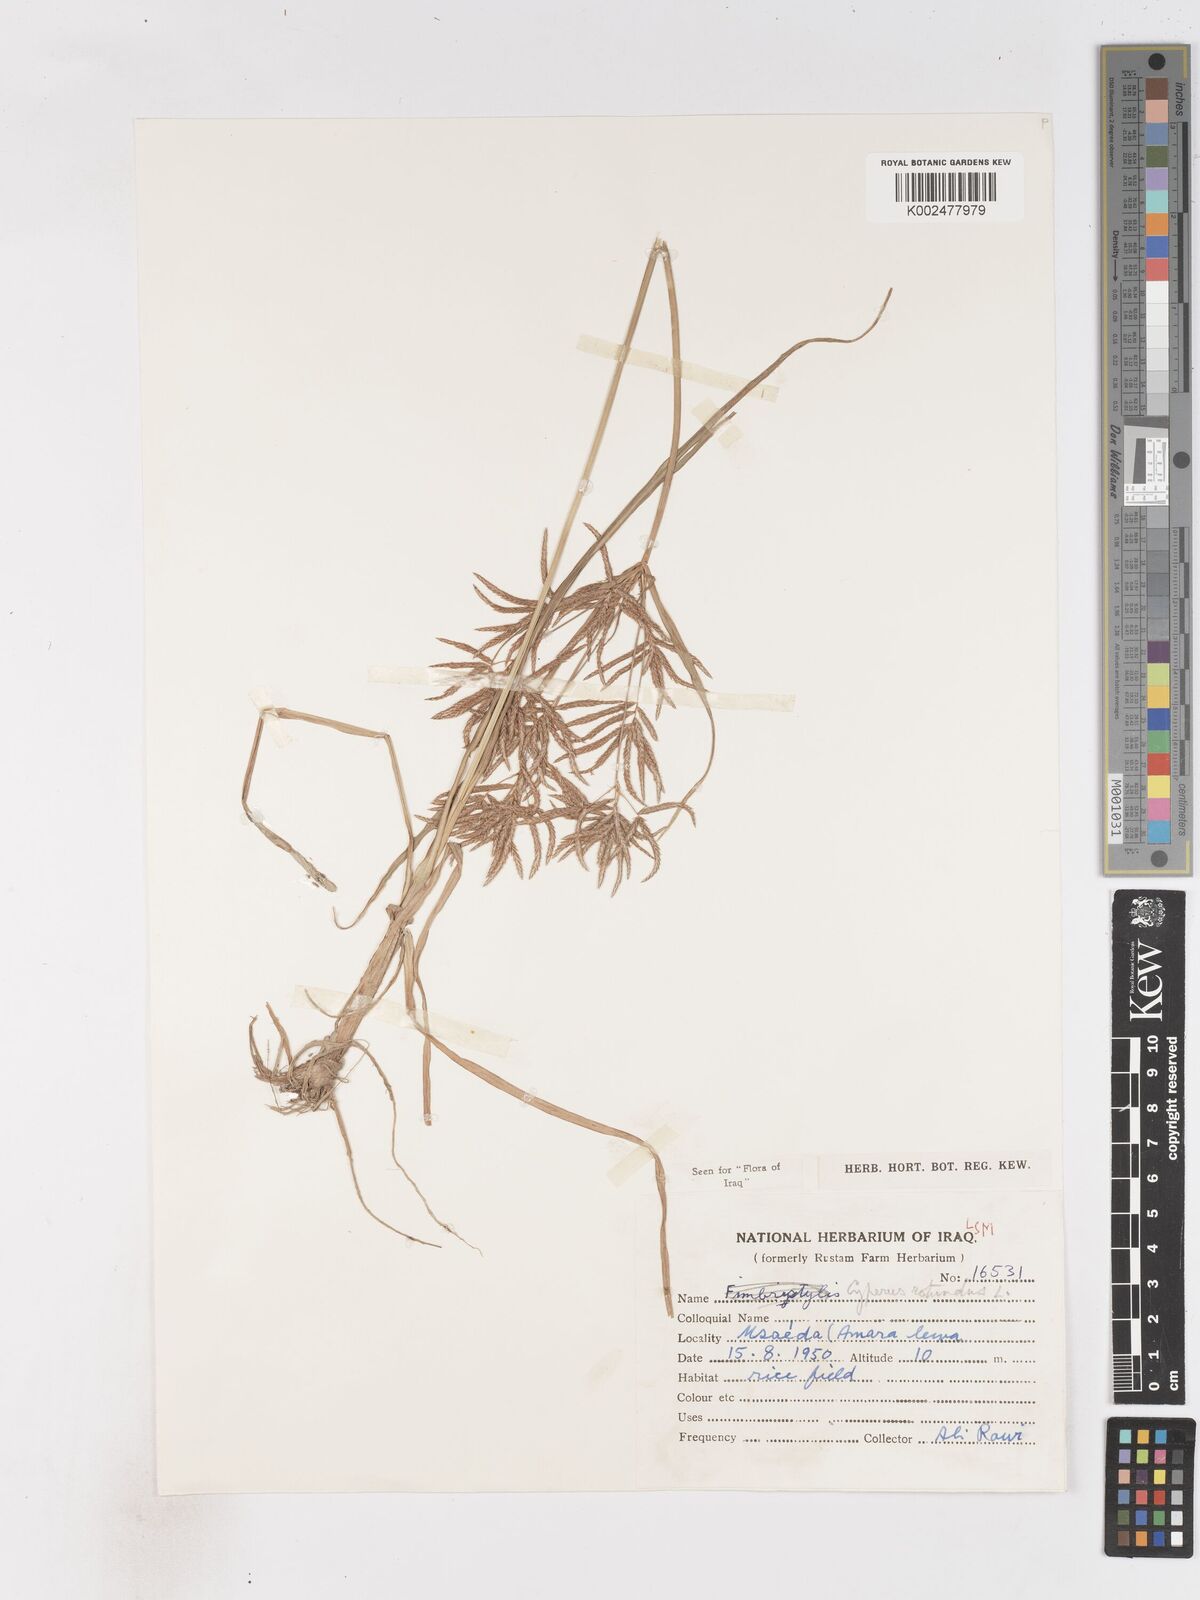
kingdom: Plantae
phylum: Tracheophyta
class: Liliopsida
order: Poales
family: Cyperaceae
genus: Cyperus
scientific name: Cyperus rotundus
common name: Nutgrass
